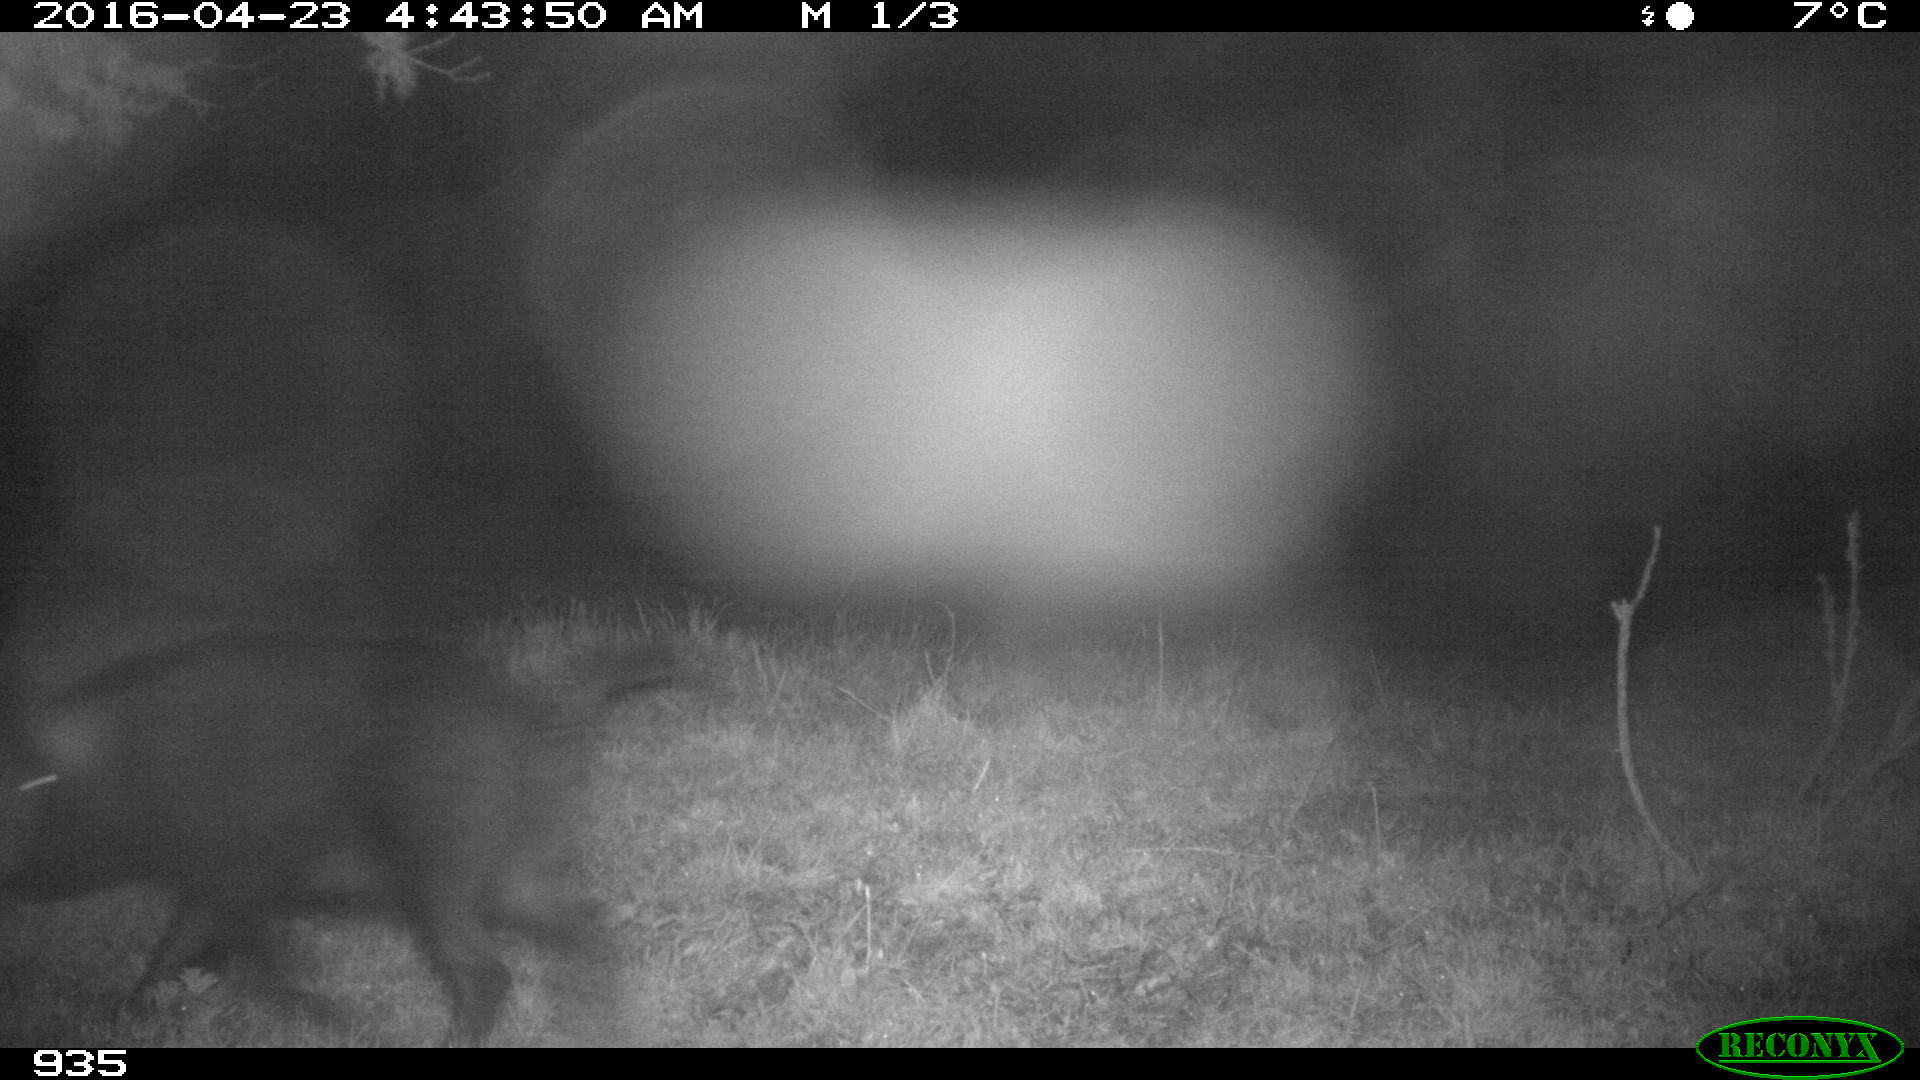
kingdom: Animalia
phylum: Chordata
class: Mammalia
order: Artiodactyla
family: Suidae
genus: Sus
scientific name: Sus scrofa
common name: Wild boar
